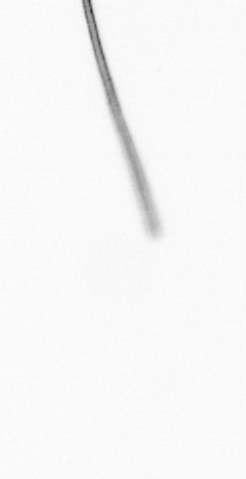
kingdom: Chromista
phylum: Ochrophyta
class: Bacillariophyceae
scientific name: Bacillariophyceae
